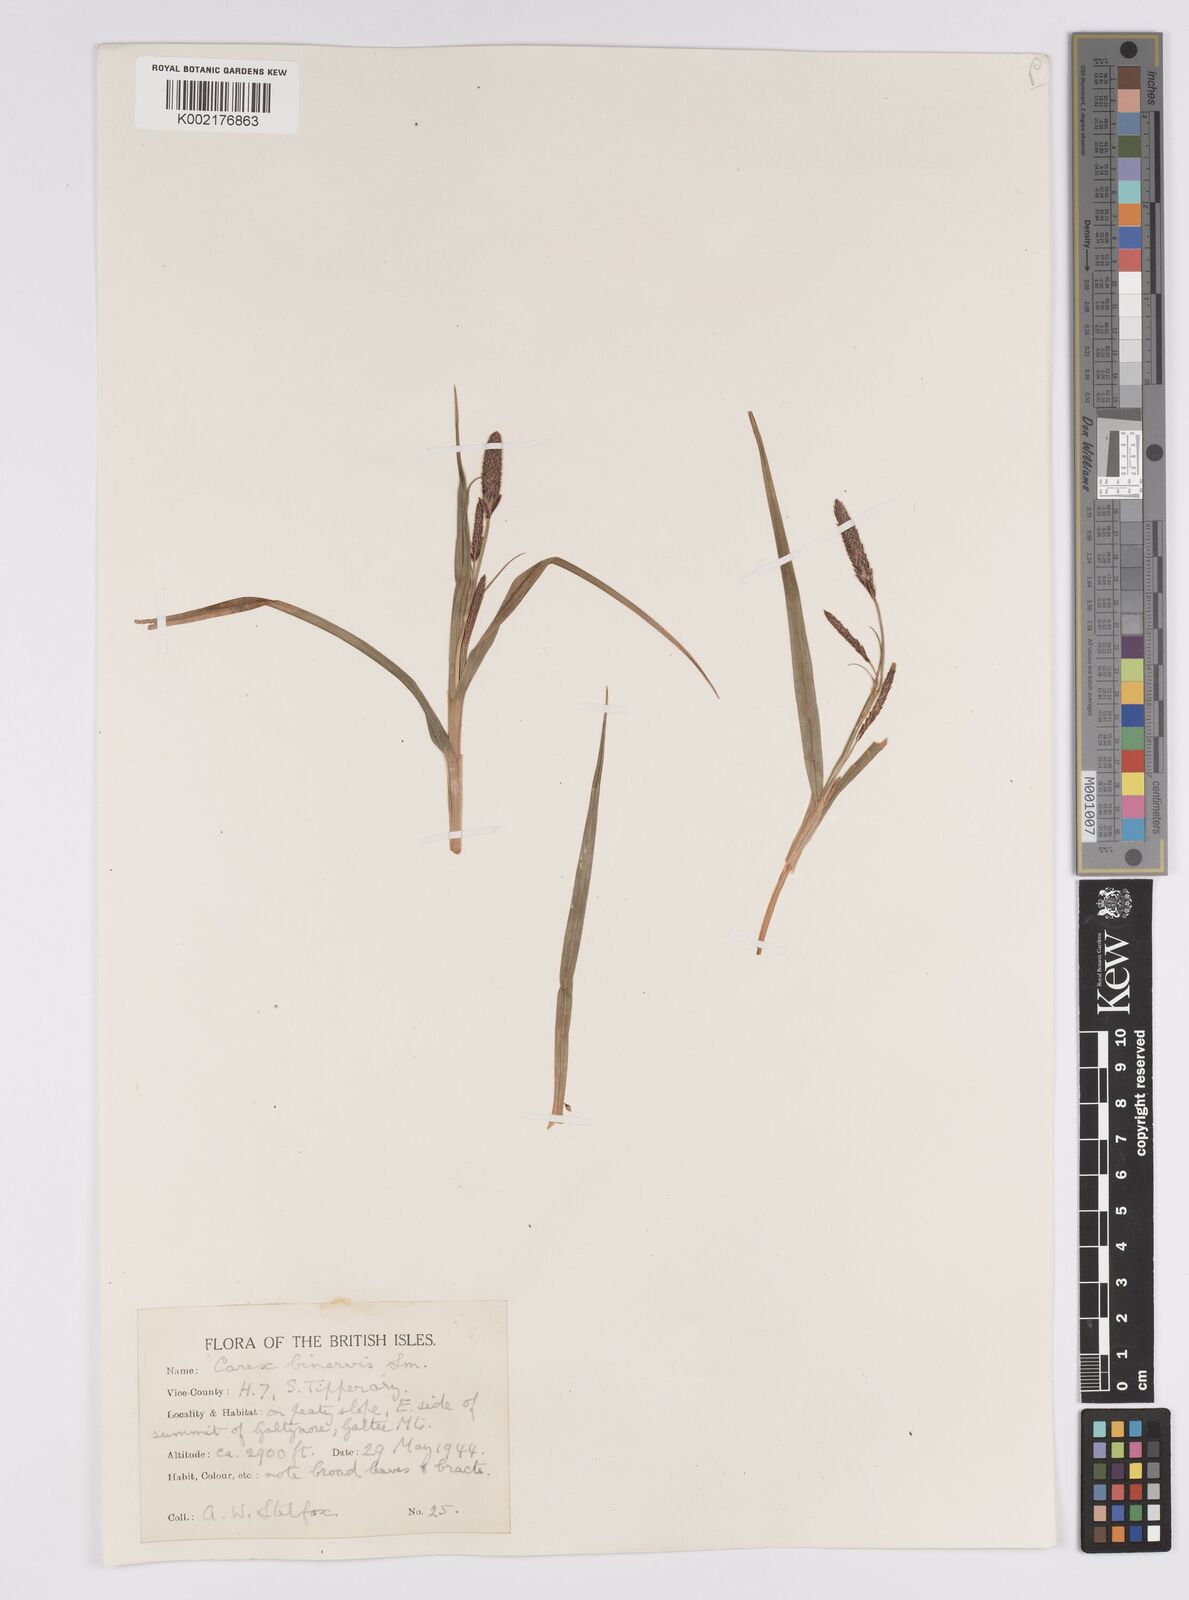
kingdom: Plantae
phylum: Tracheophyta
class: Liliopsida
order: Poales
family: Cyperaceae
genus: Carex
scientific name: Carex binervis
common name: Green-ribbed sedge
